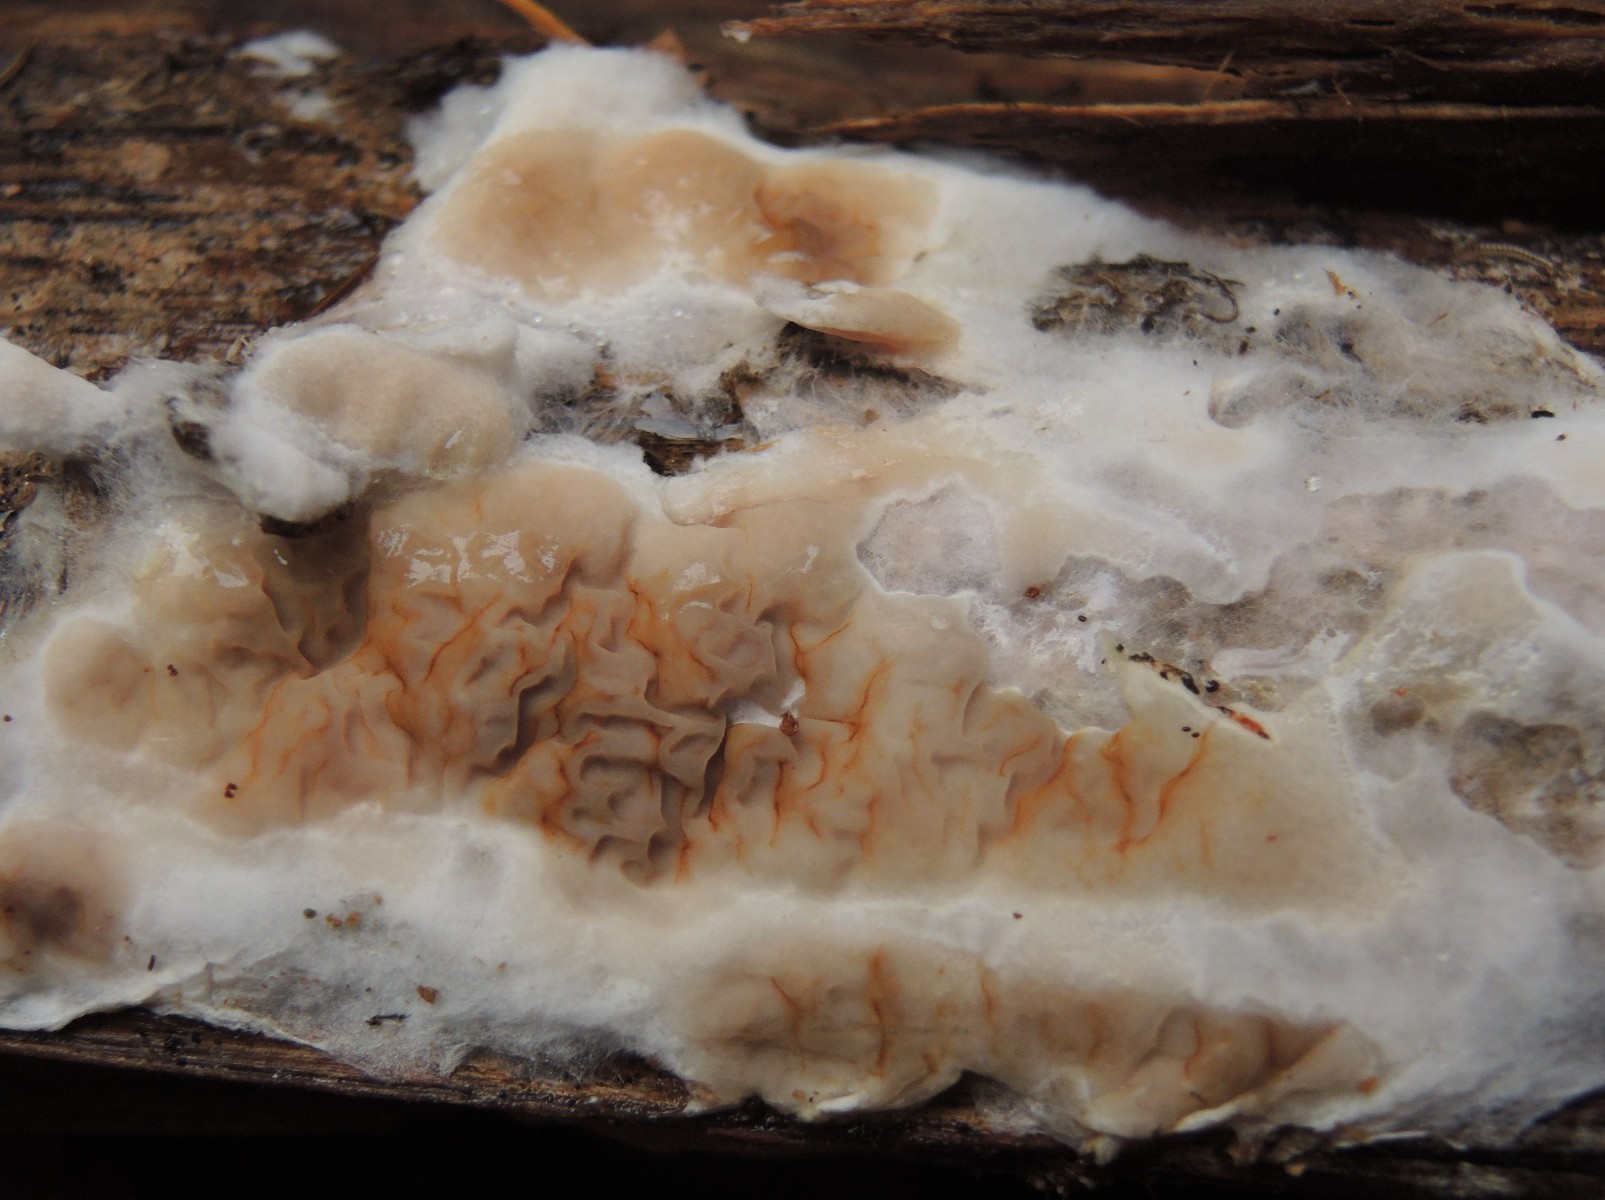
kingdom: Fungi
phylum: Basidiomycota
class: Agaricomycetes
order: Boletales
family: Serpulaceae
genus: Serpula
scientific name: Serpula himantioides
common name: tyndkødet hussvamp
